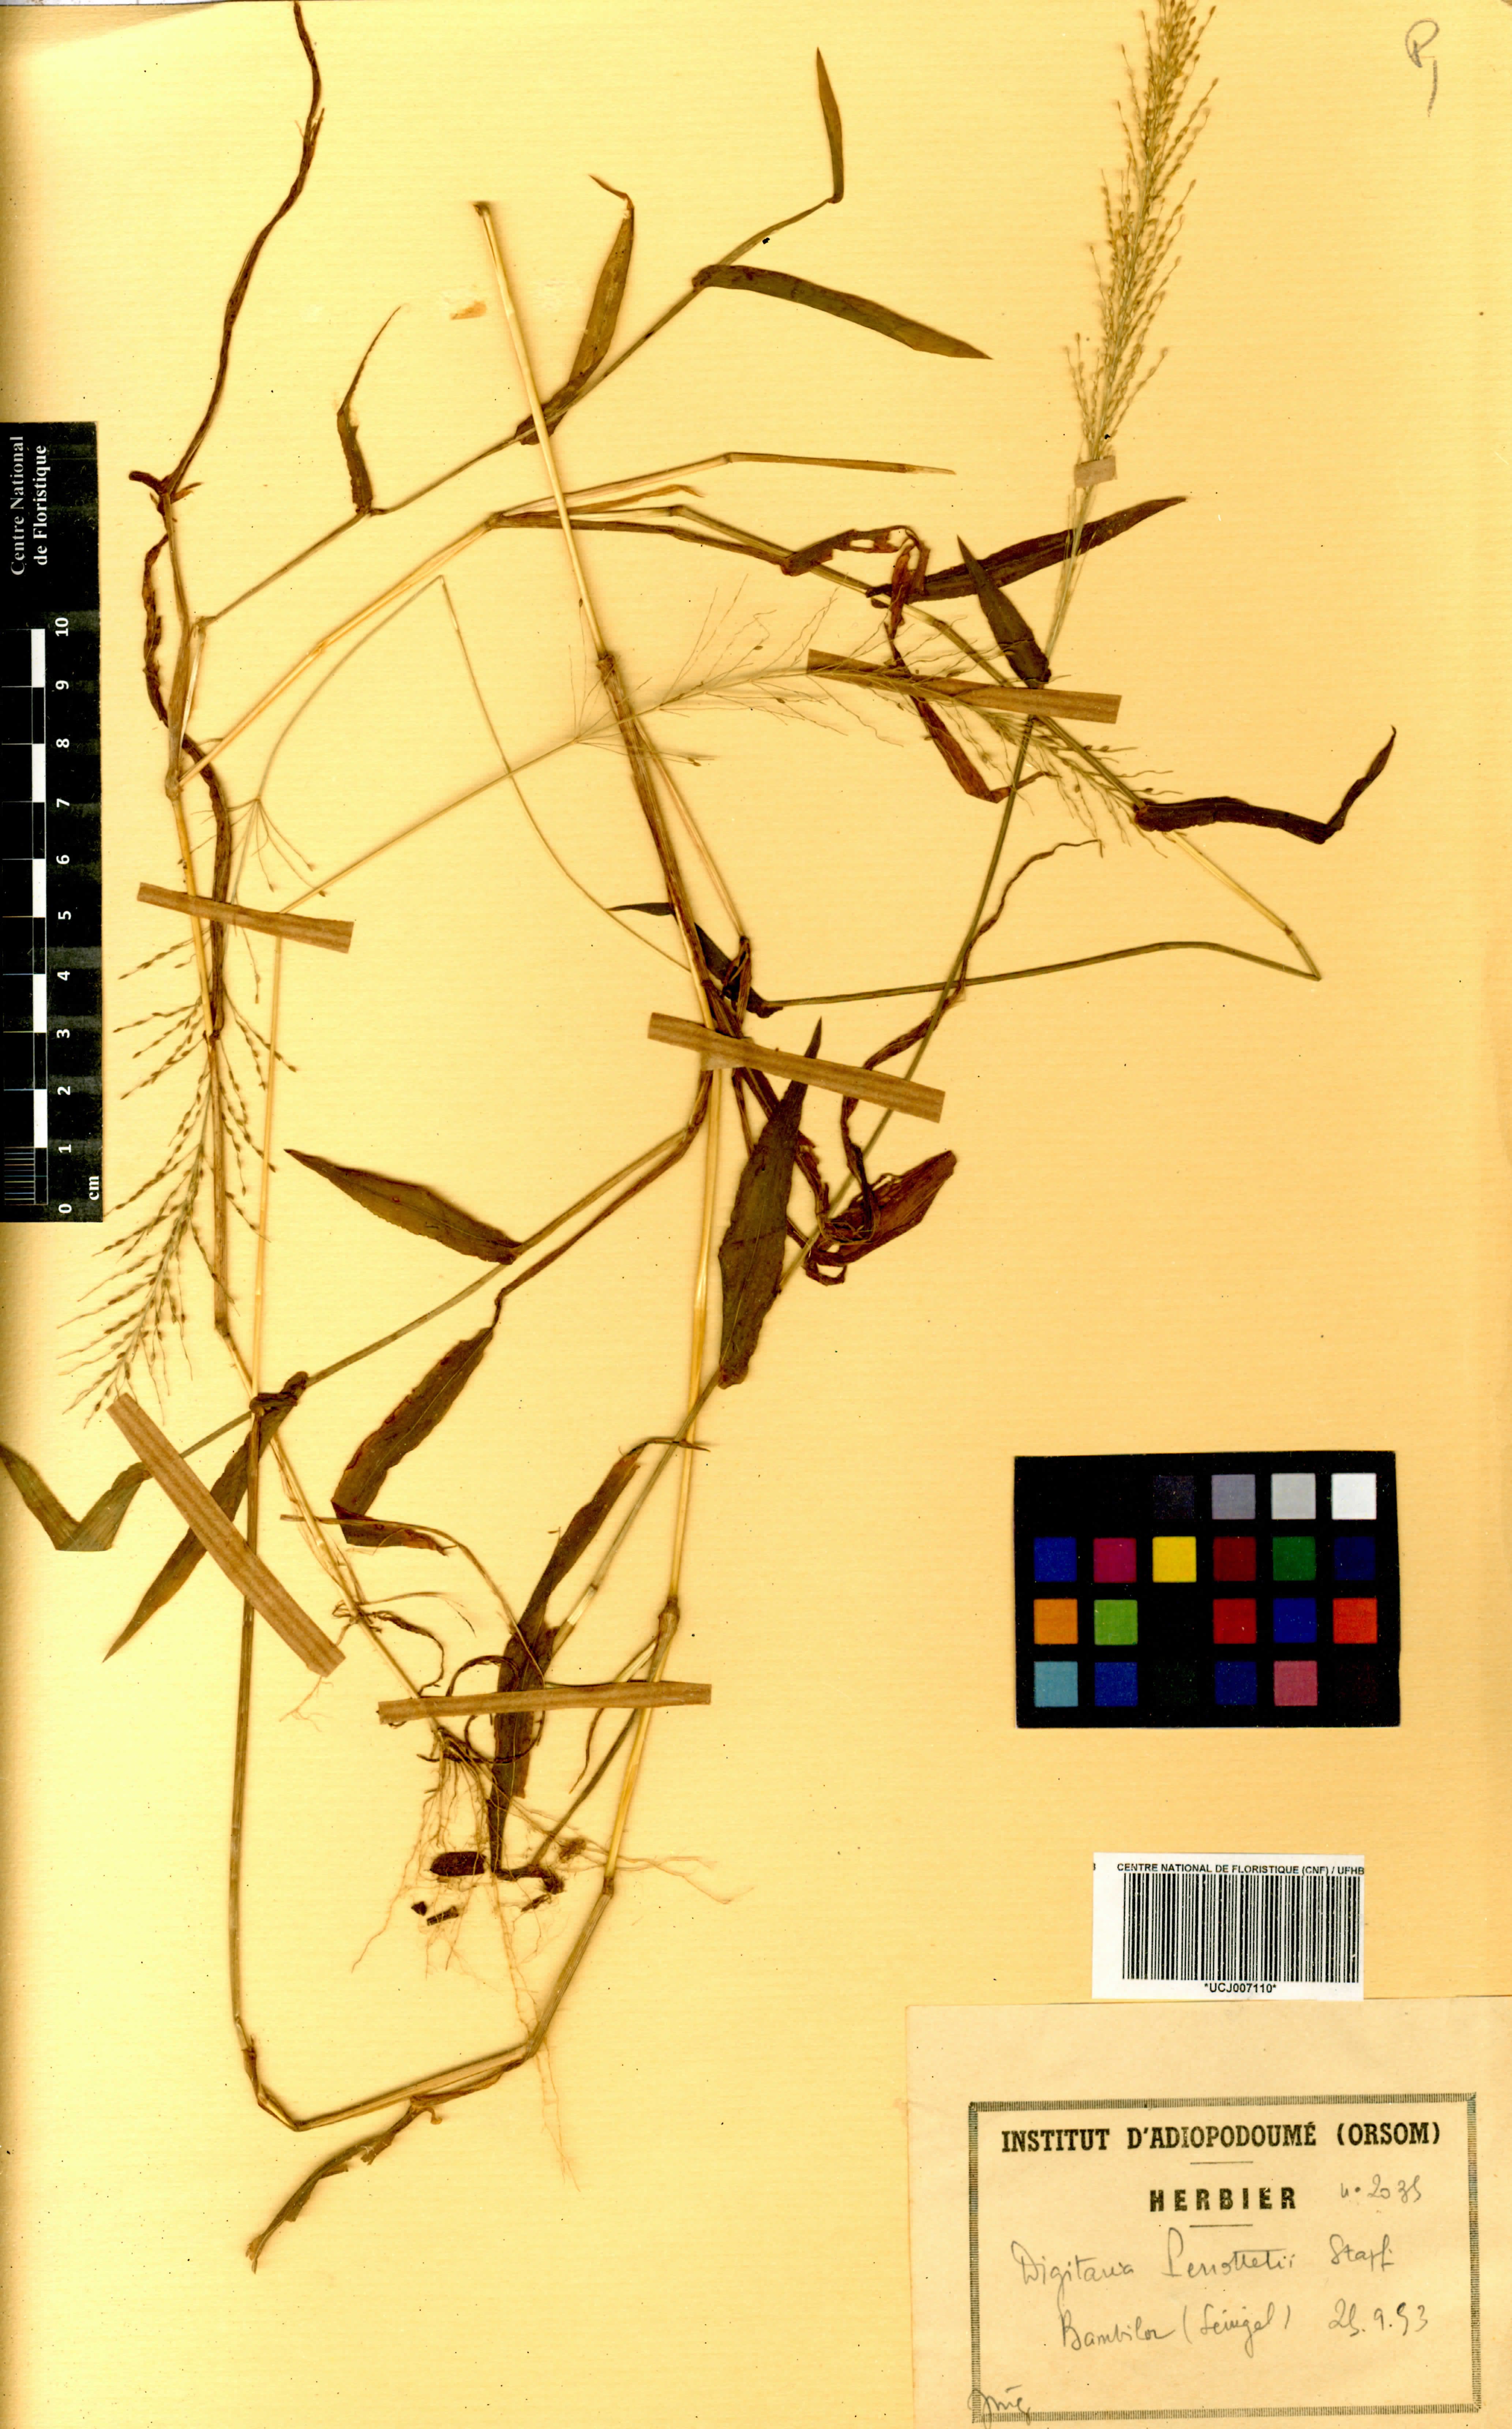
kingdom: Plantae
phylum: Tracheophyta
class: Liliopsida
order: Poales
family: Poaceae
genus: Digitaria
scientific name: Digitaria perrottetii
